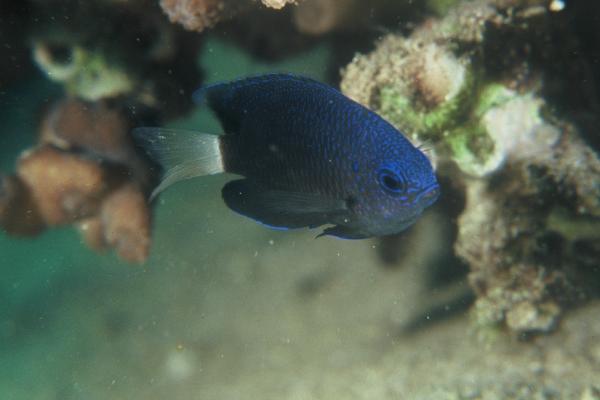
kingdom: Animalia
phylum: Chordata
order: Perciformes
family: Pomacentridae
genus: Pomacentrus
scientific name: Pomacentrus trichrourus
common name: Paletail damsel
